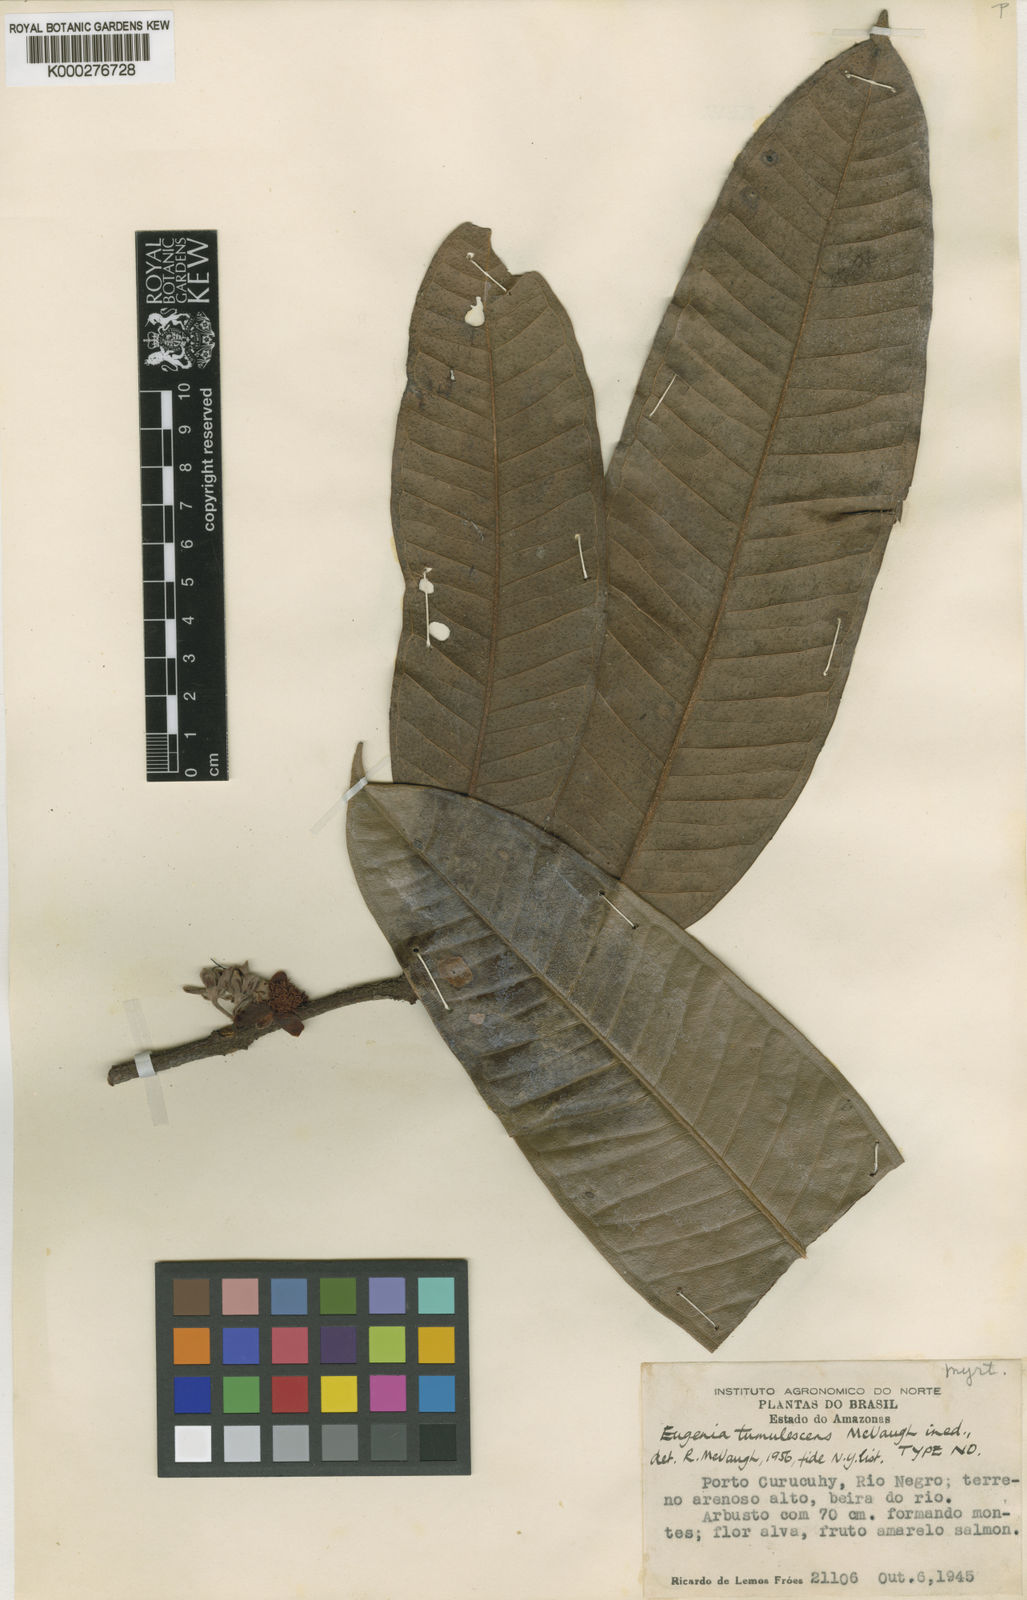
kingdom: Plantae
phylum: Tracheophyta
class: Magnoliopsida
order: Myrtales
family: Myrtaceae
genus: Eugenia
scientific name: Eugenia tumulescens
